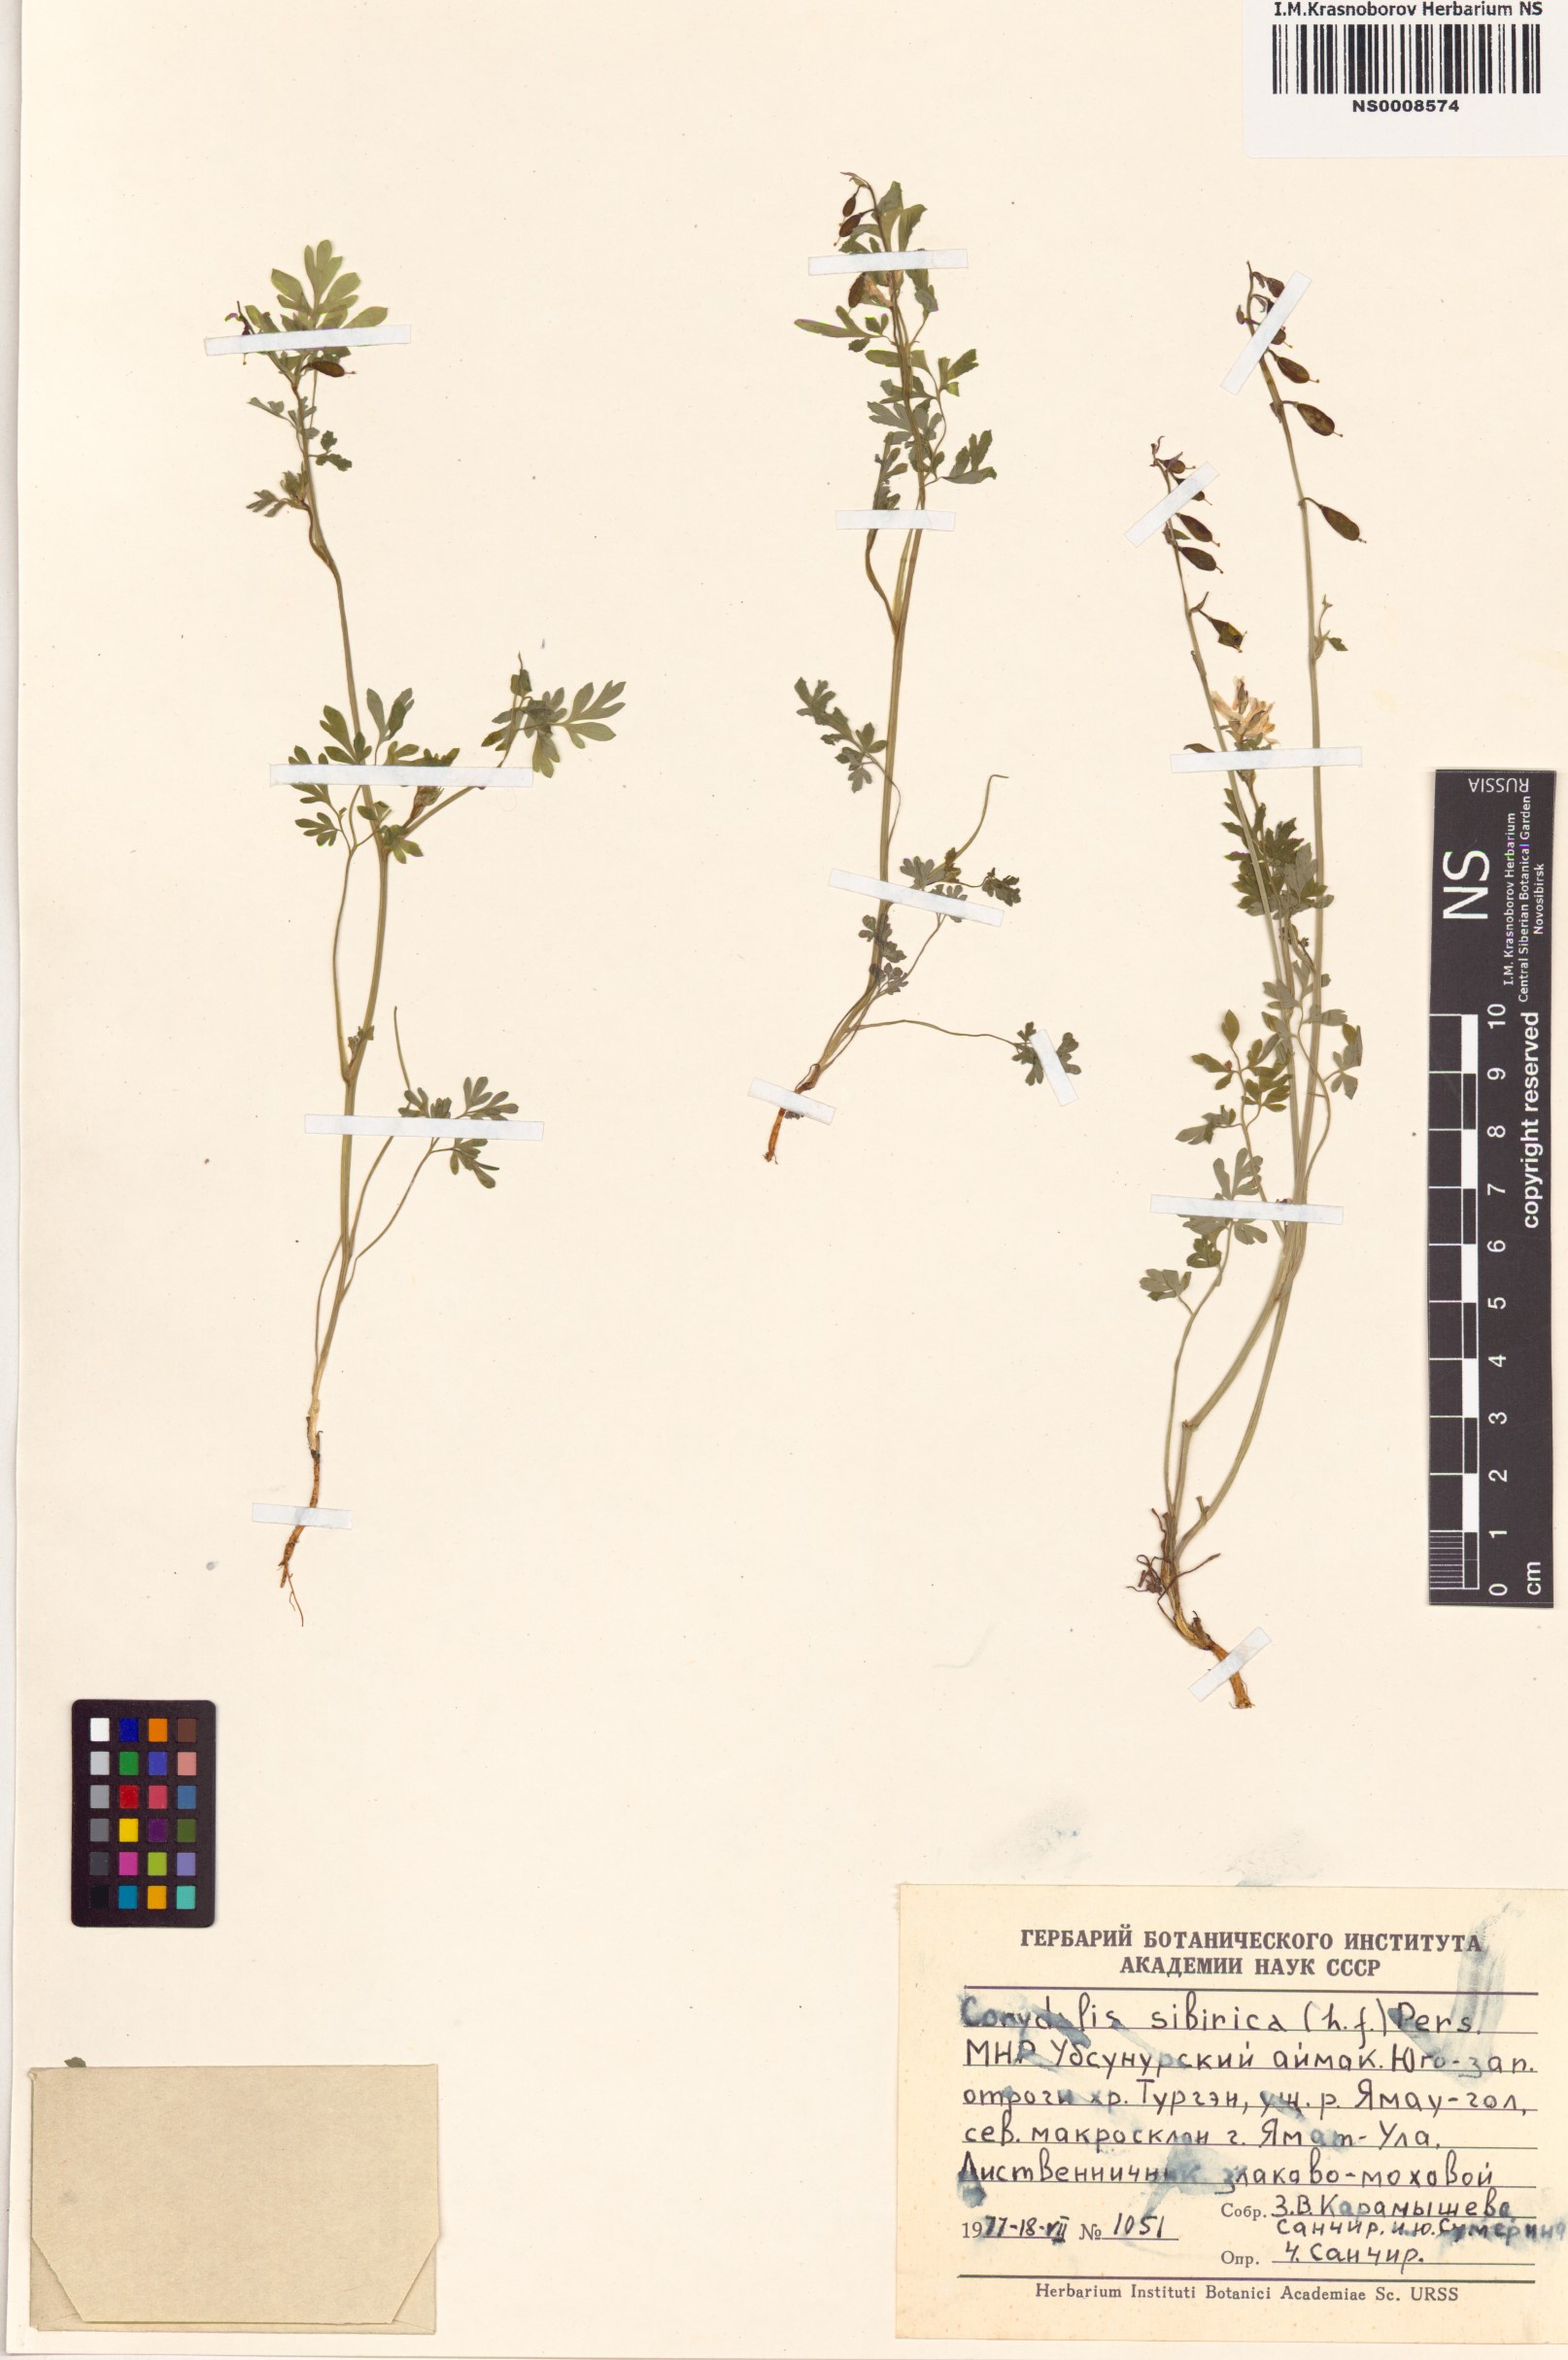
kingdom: Plantae
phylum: Tracheophyta
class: Magnoliopsida
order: Ranunculales
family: Papaveraceae
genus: Corydalis
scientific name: Corydalis sibirica
